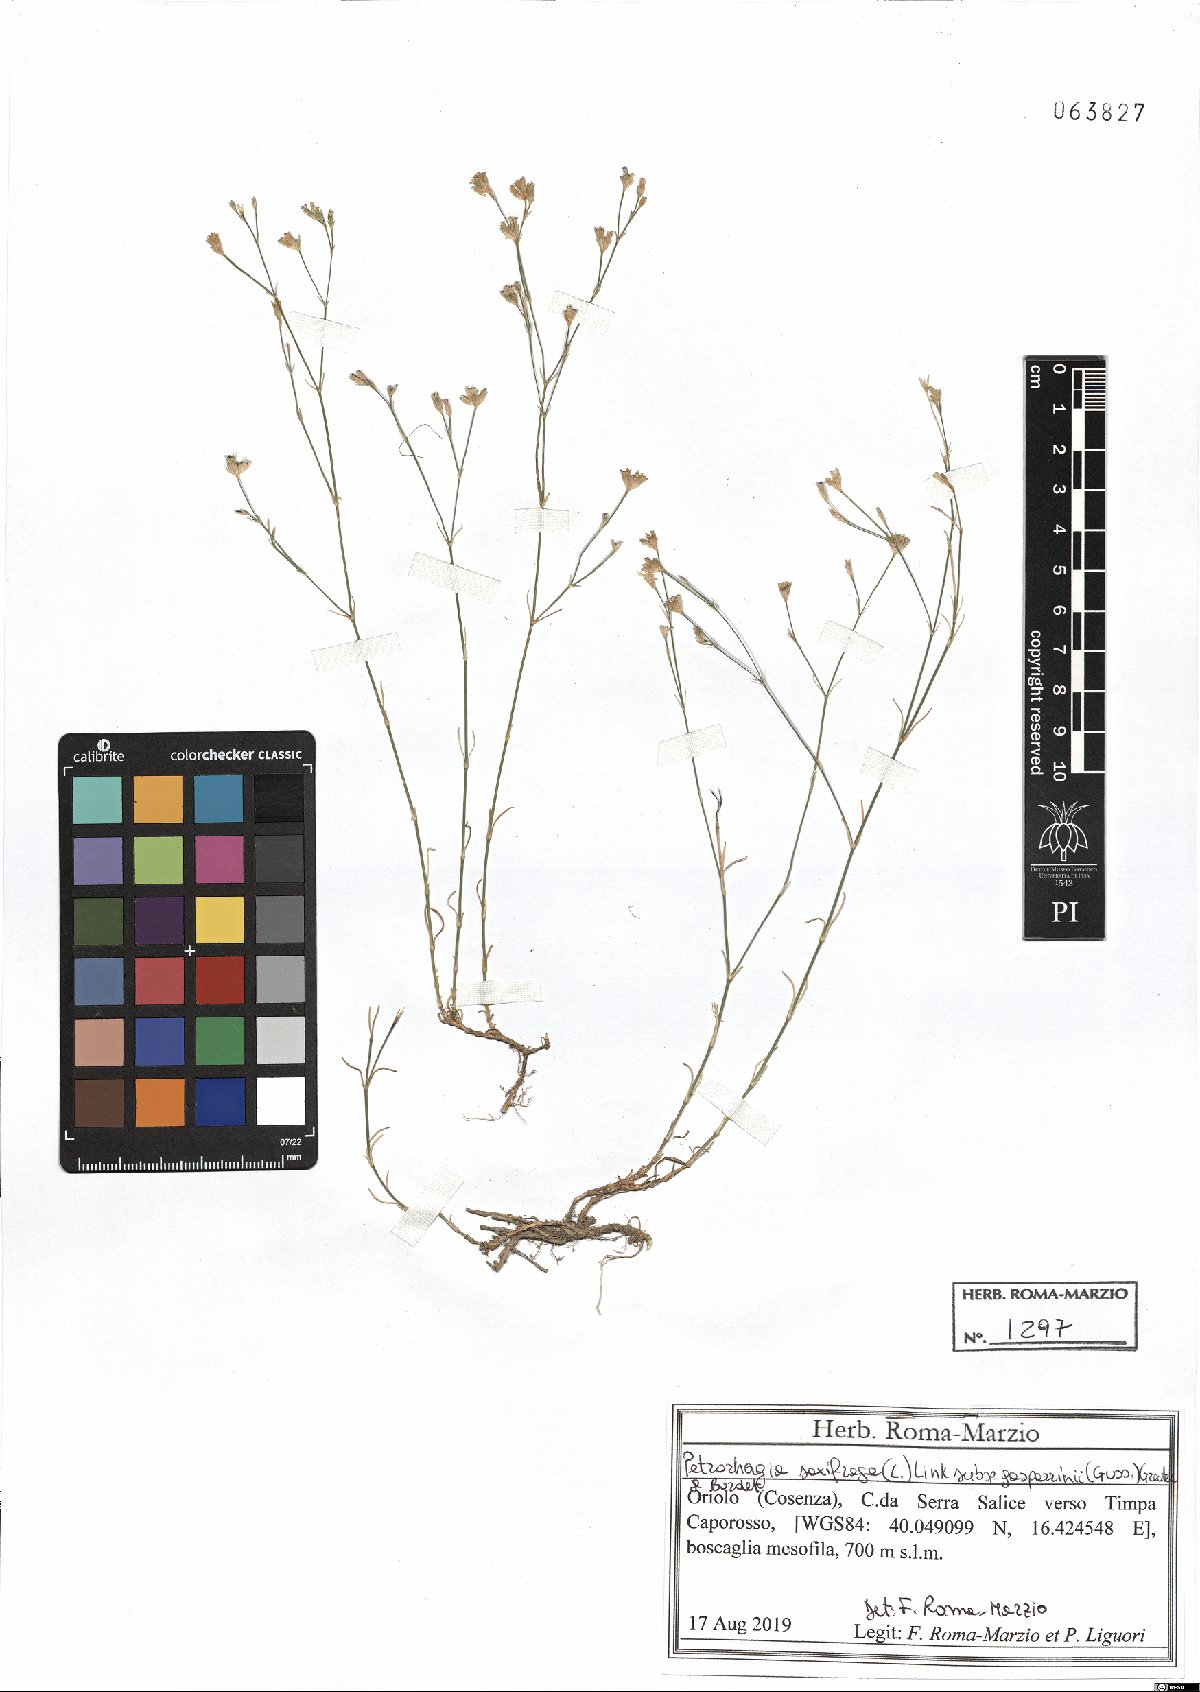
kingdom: Plantae
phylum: Tracheophyta
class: Magnoliopsida
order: Caryophyllales
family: Caryophyllaceae
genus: Petrorhagia
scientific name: Petrorhagia saxifraga
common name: Tunicflower
